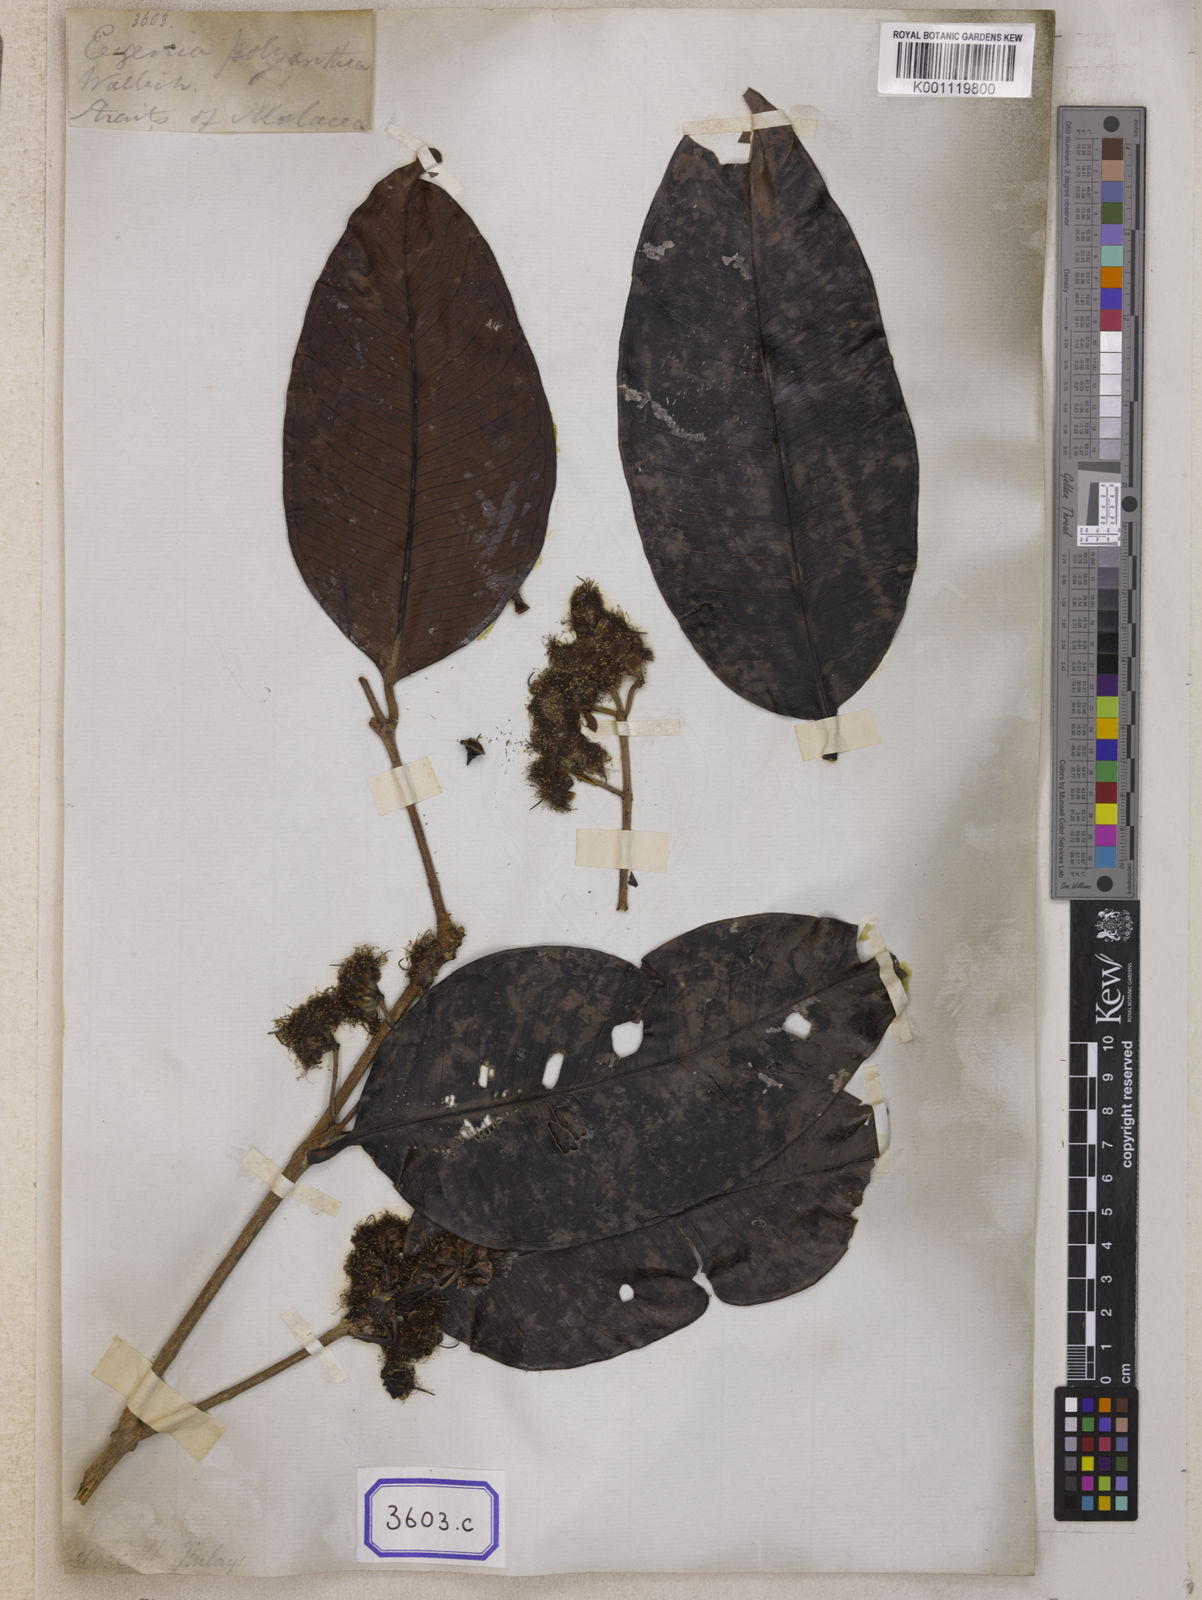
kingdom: Plantae
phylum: Tracheophyta
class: Magnoliopsida
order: Myrtales
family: Myrtaceae
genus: Eugenia
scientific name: Eugenia
